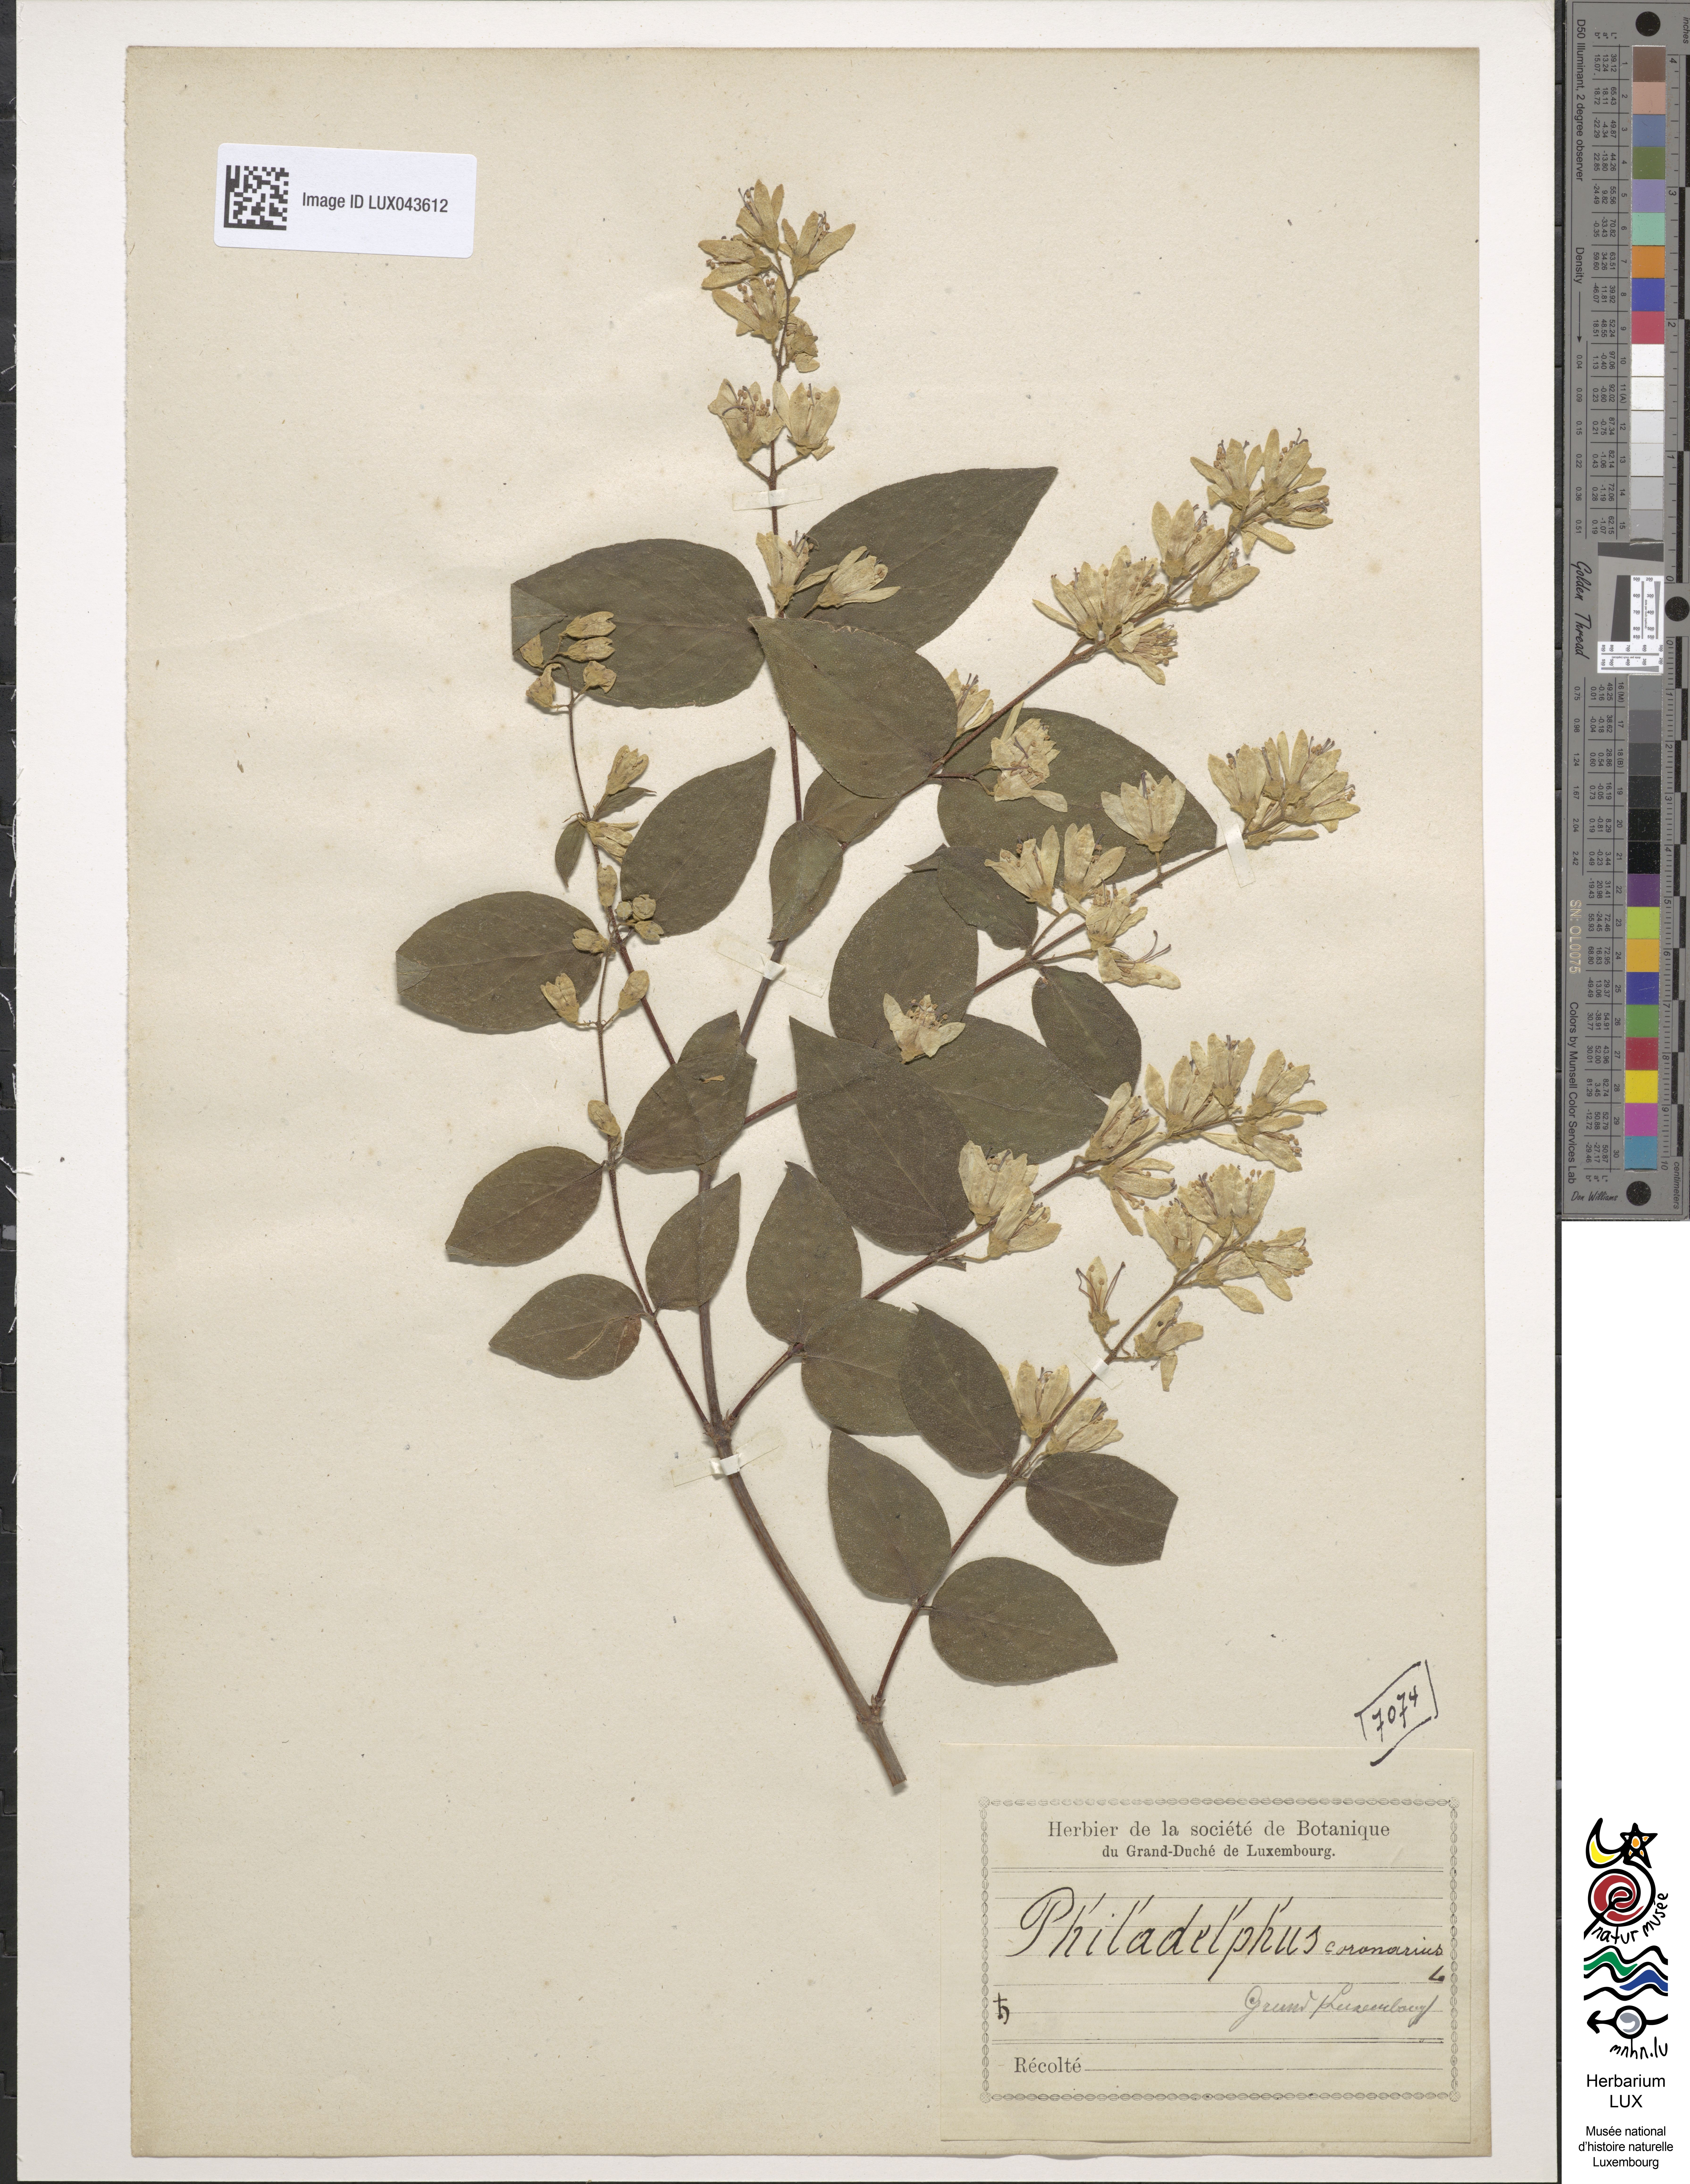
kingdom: Plantae
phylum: Tracheophyta
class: Magnoliopsida
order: Cornales
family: Hydrangeaceae
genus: Philadelphus
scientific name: Philadelphus coronarius
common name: Mock orange
